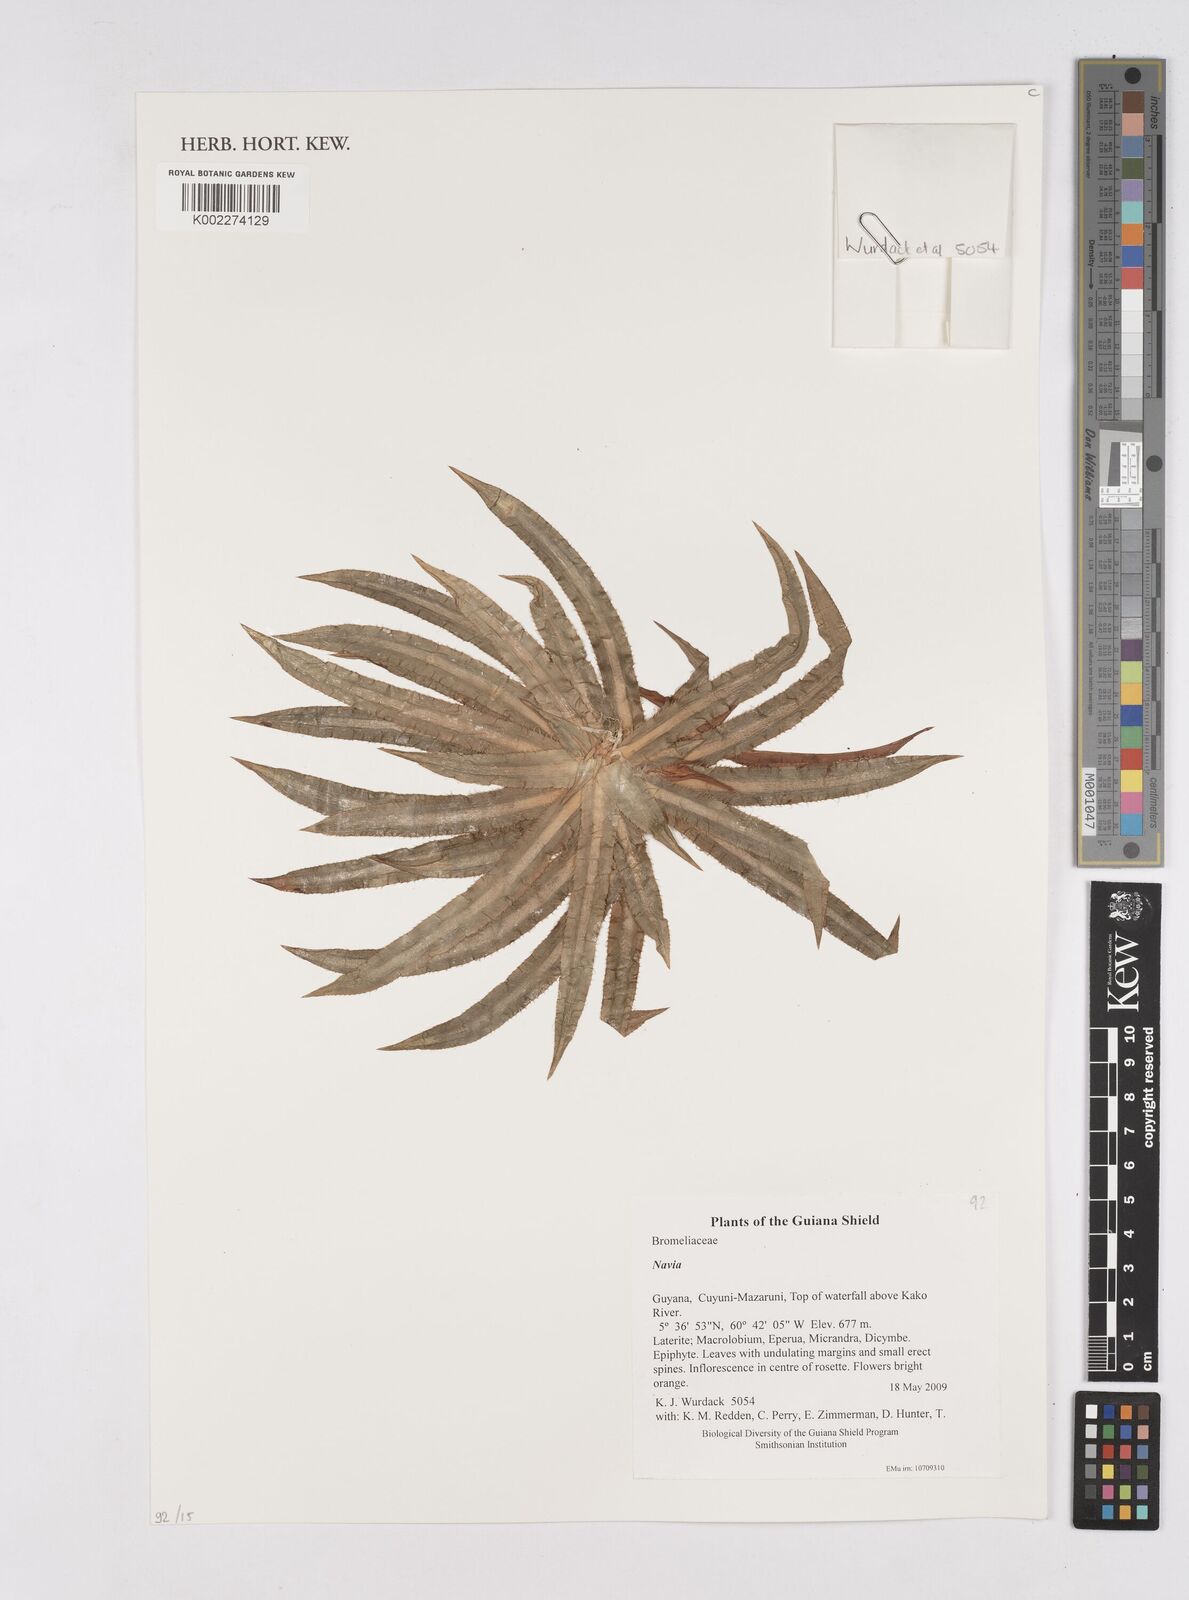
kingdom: Plantae
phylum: Tracheophyta
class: Liliopsida
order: Poales
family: Bromeliaceae
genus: Navia
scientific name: Navia
